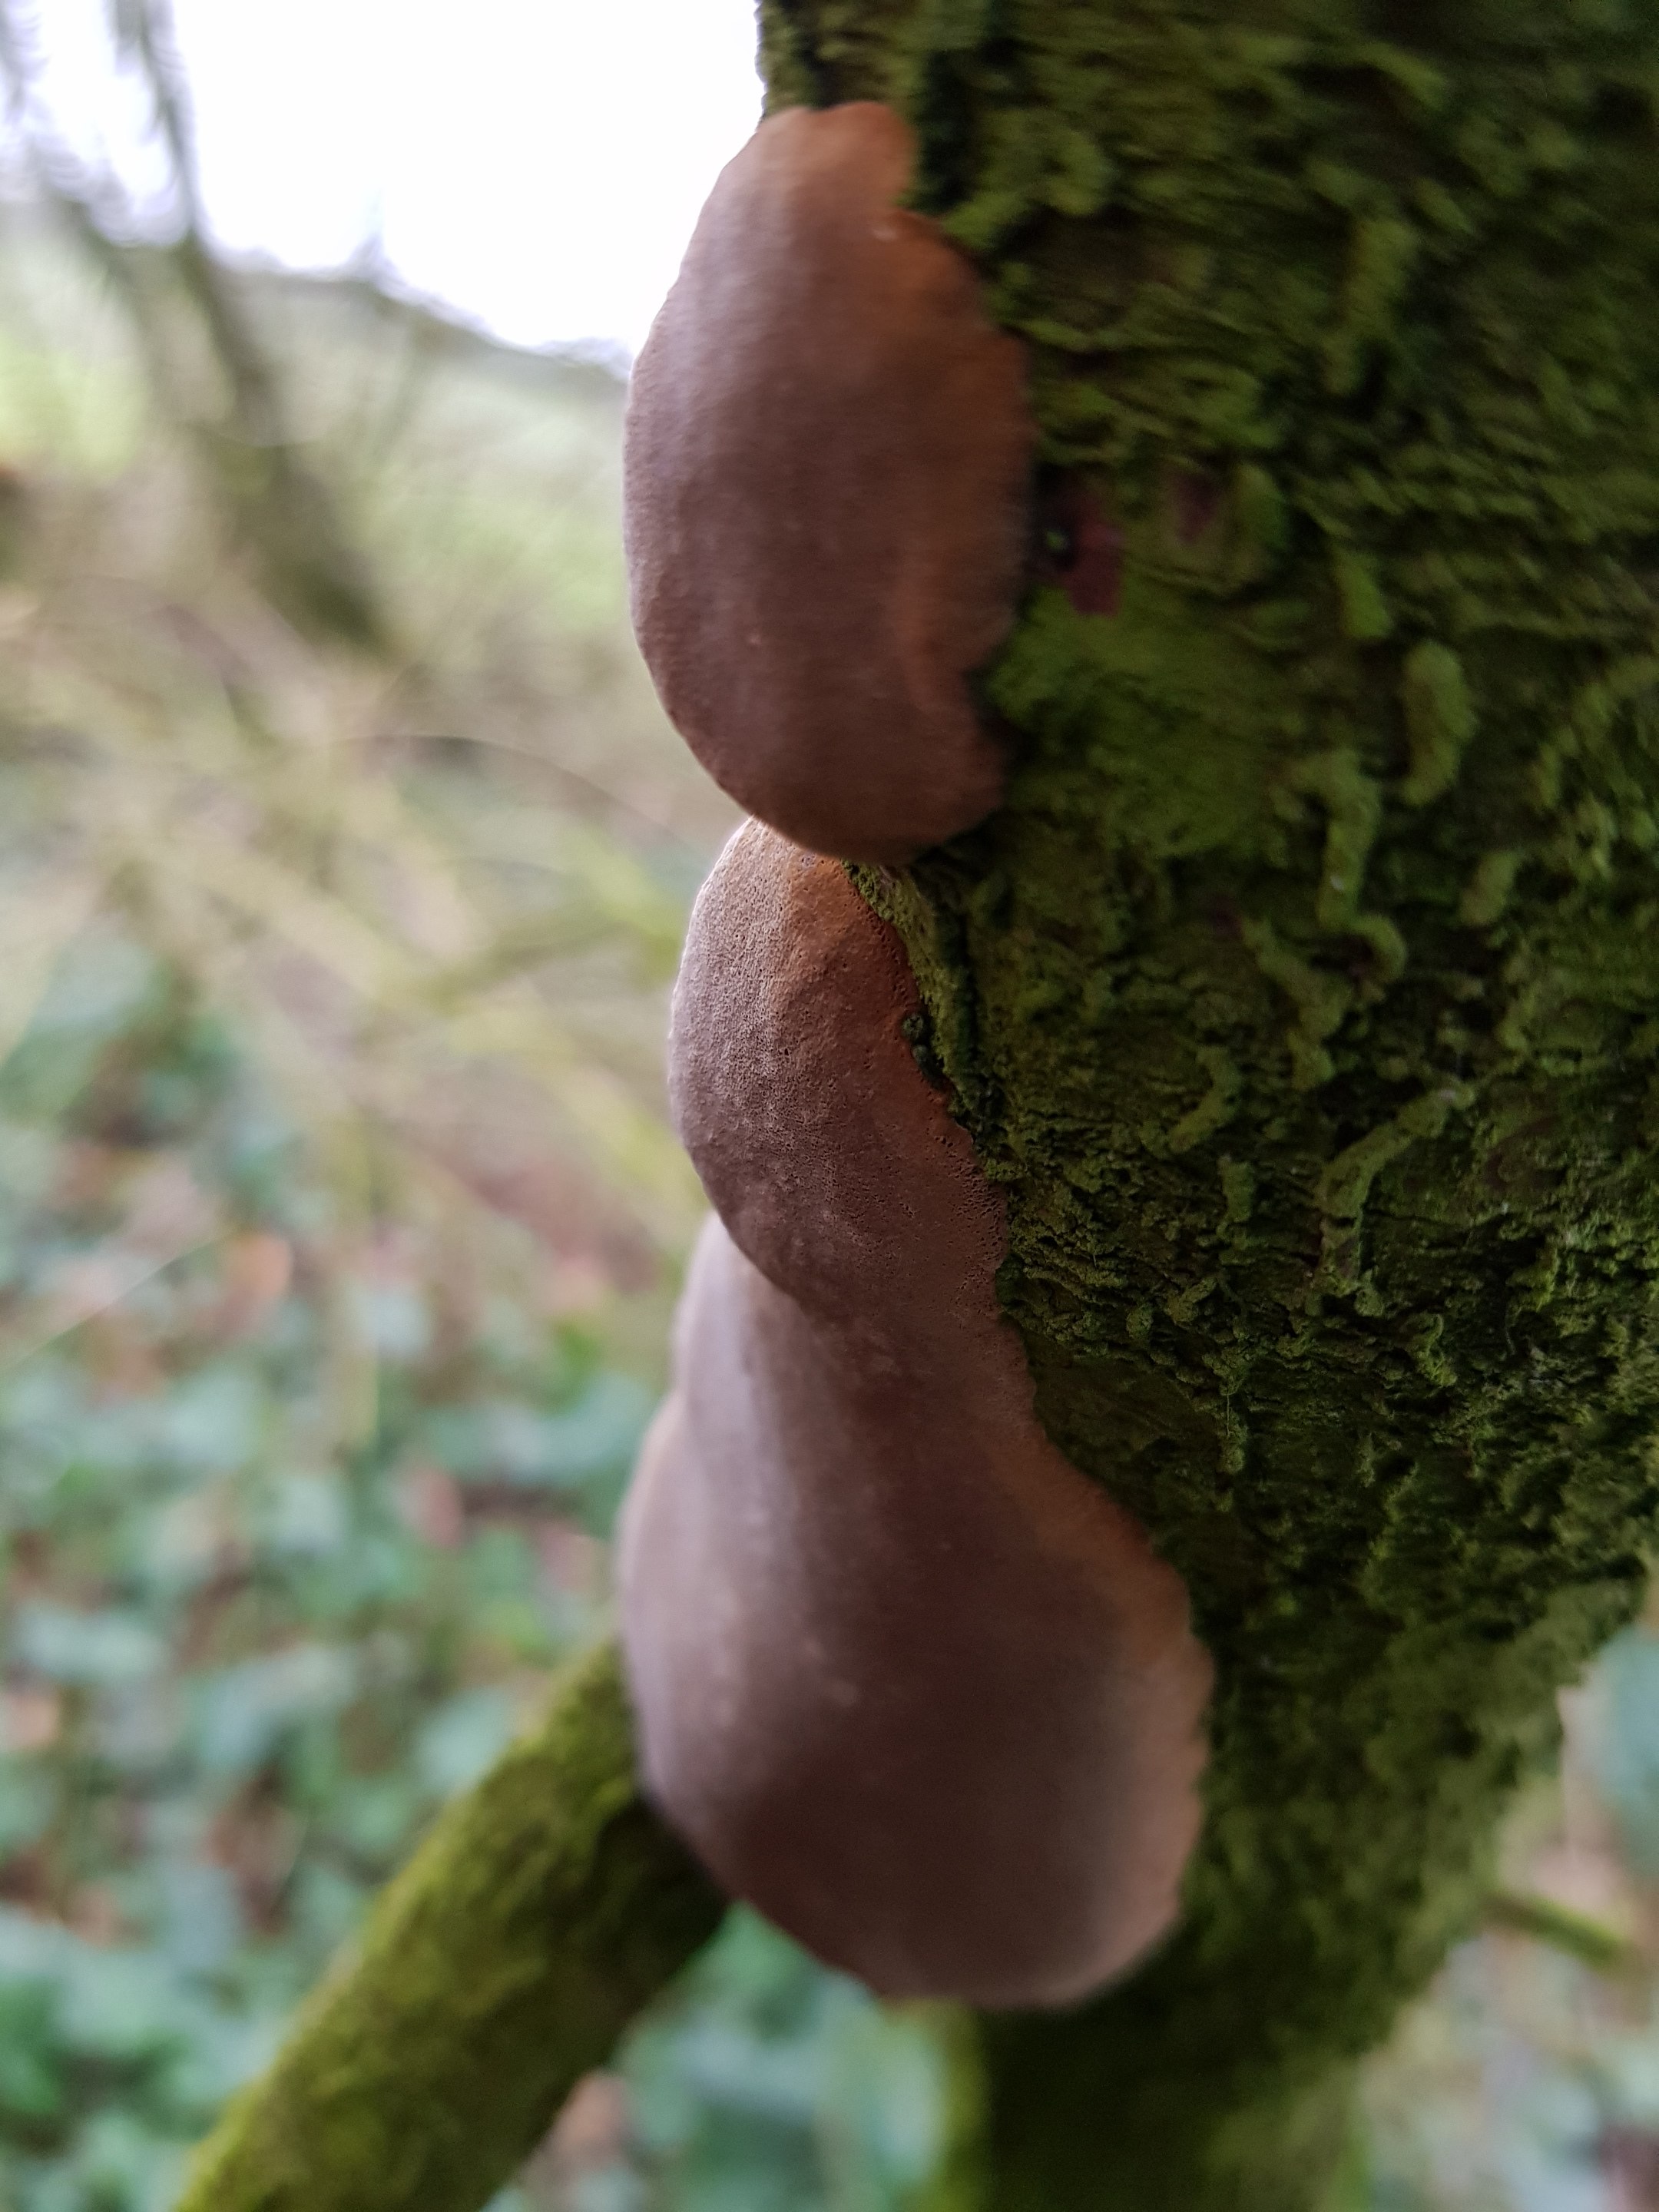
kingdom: Fungi
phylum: Basidiomycota
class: Agaricomycetes
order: Hymenochaetales
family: Hymenochaetaceae
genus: Phellinus
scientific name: Phellinus pomaceus
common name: blomme-ildporesvamp
